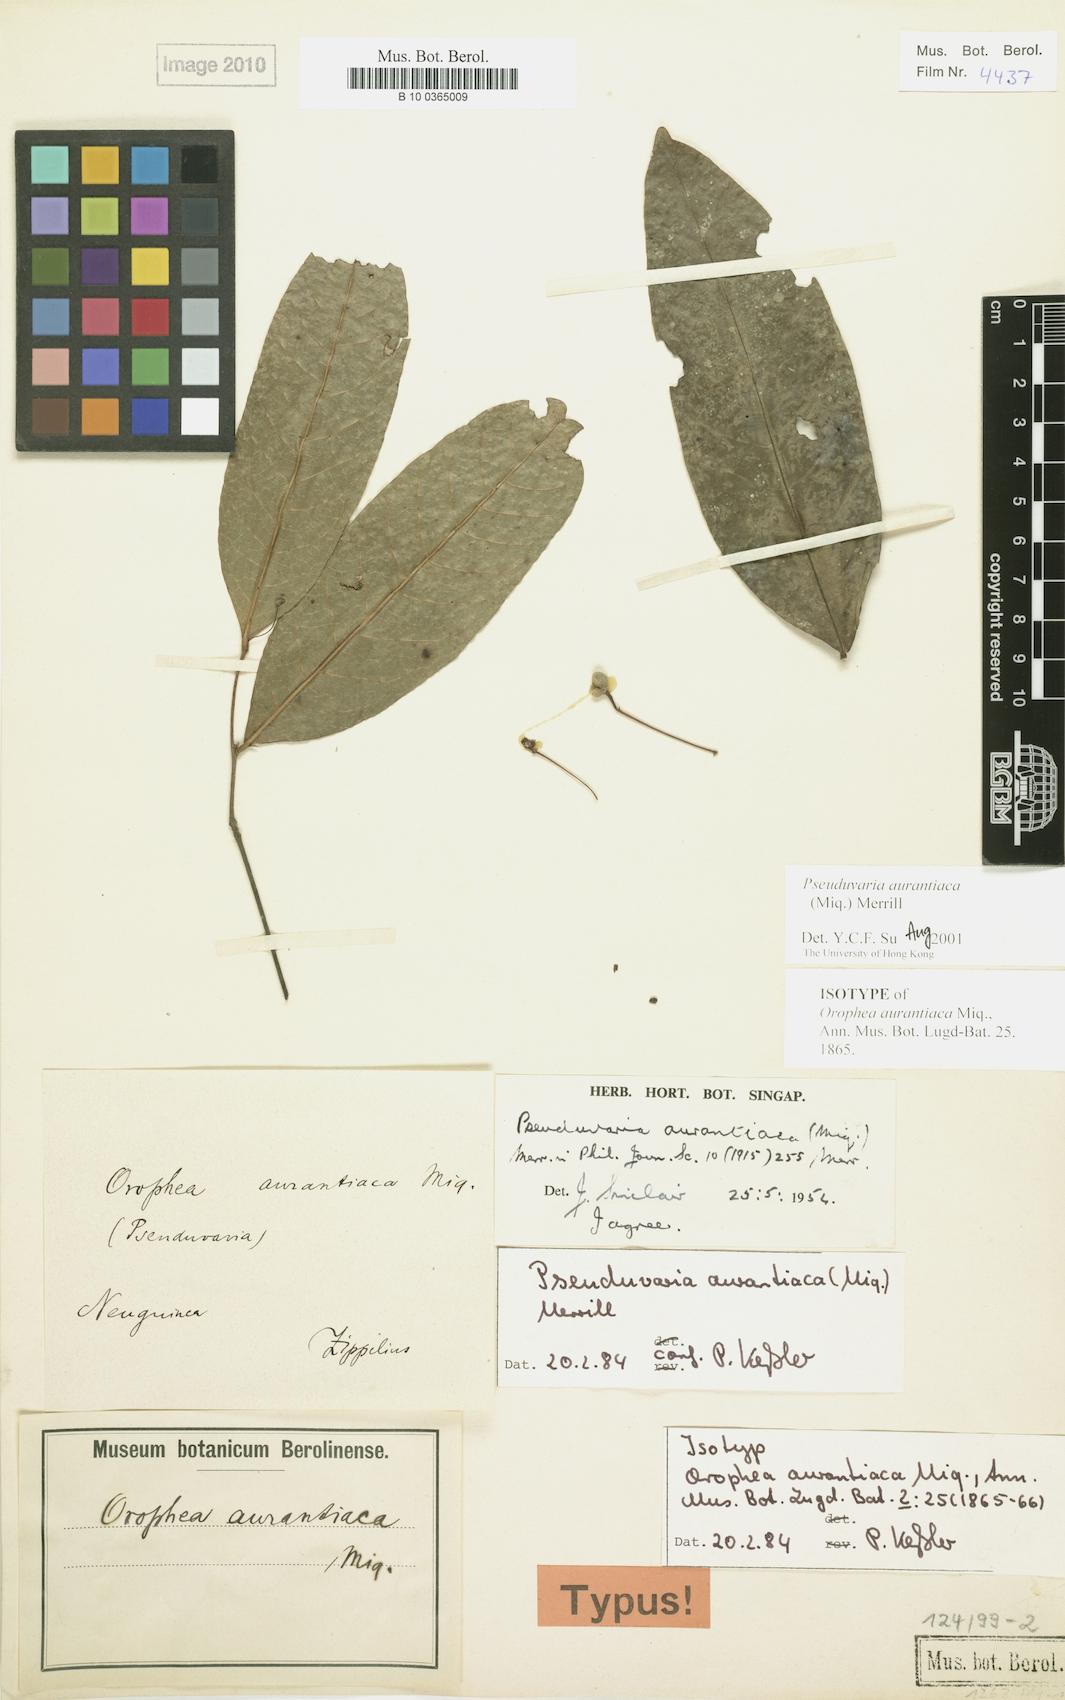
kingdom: Plantae
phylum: Tracheophyta
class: Magnoliopsida
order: Magnoliales
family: Annonaceae
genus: Pseuduvaria
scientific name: Pseuduvaria aurantiaca
